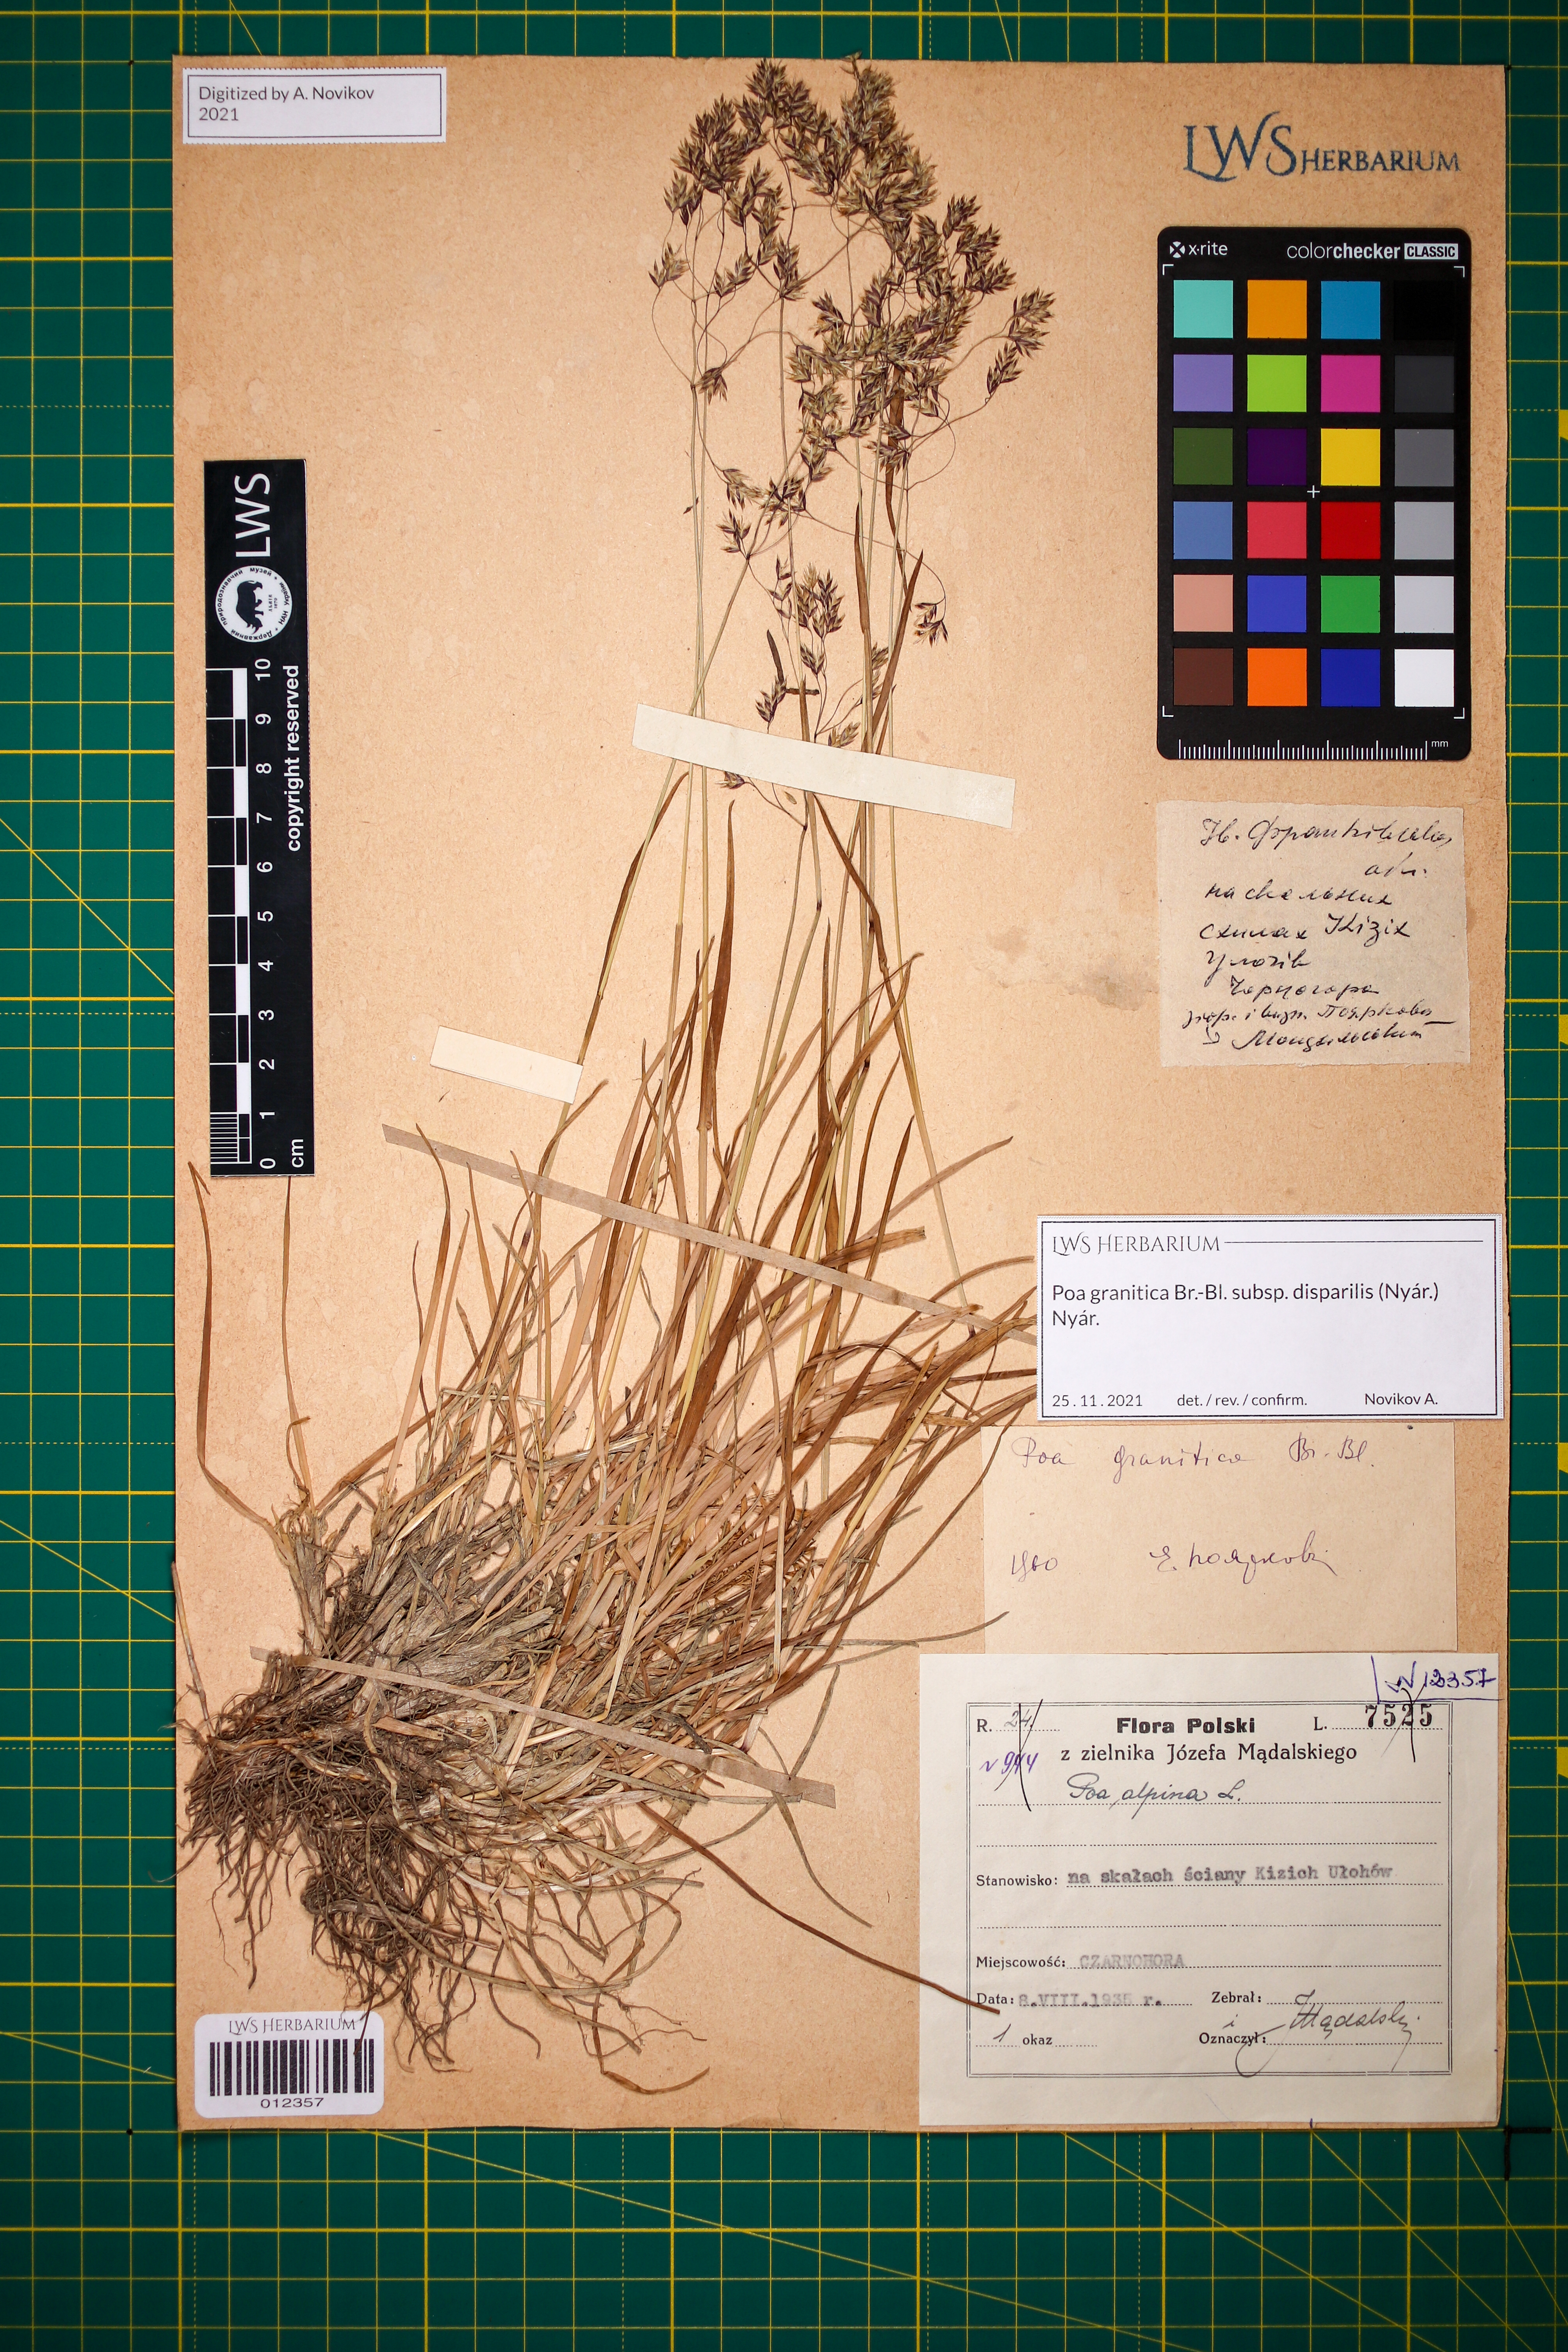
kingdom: Plantae
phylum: Tracheophyta
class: Liliopsida
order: Poales
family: Poaceae
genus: Poa
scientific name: Poa granitica
